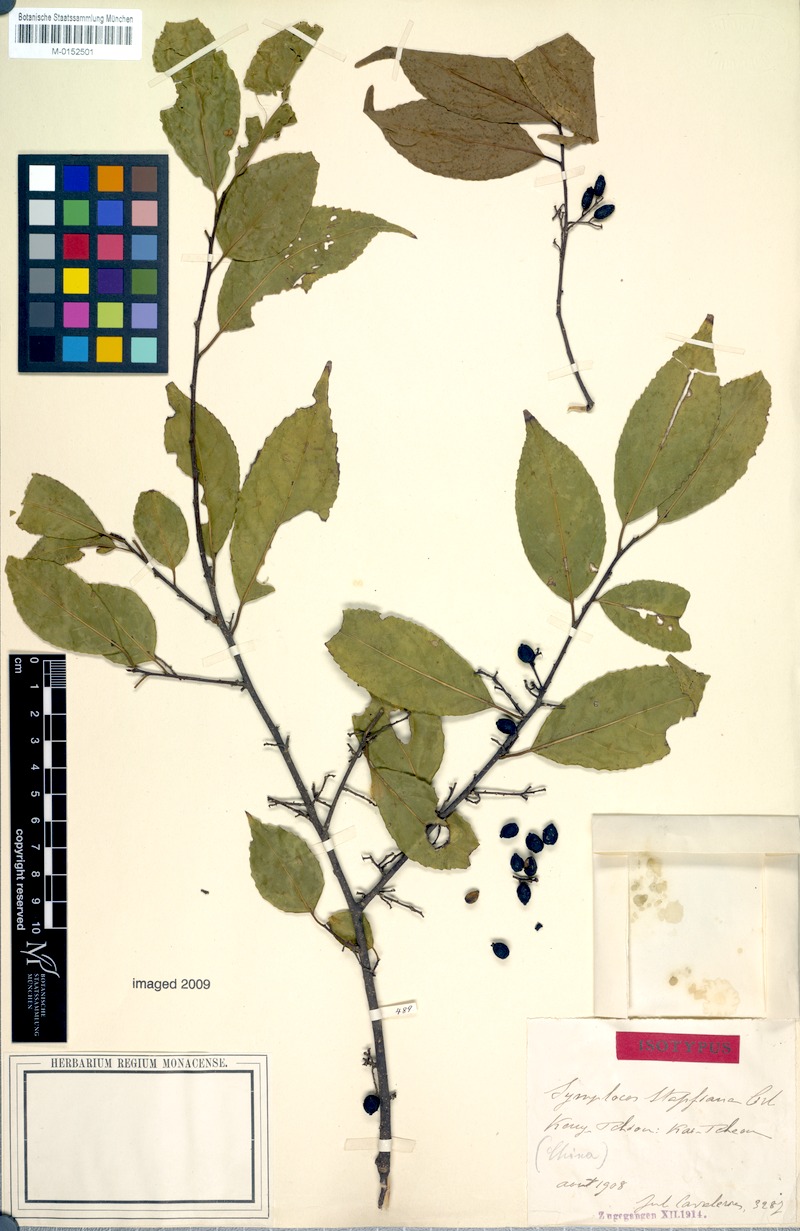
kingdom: Plantae
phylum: Tracheophyta
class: Magnoliopsida
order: Ericales
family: Symplocaceae
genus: Symplocos
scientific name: Symplocos ramosissima
